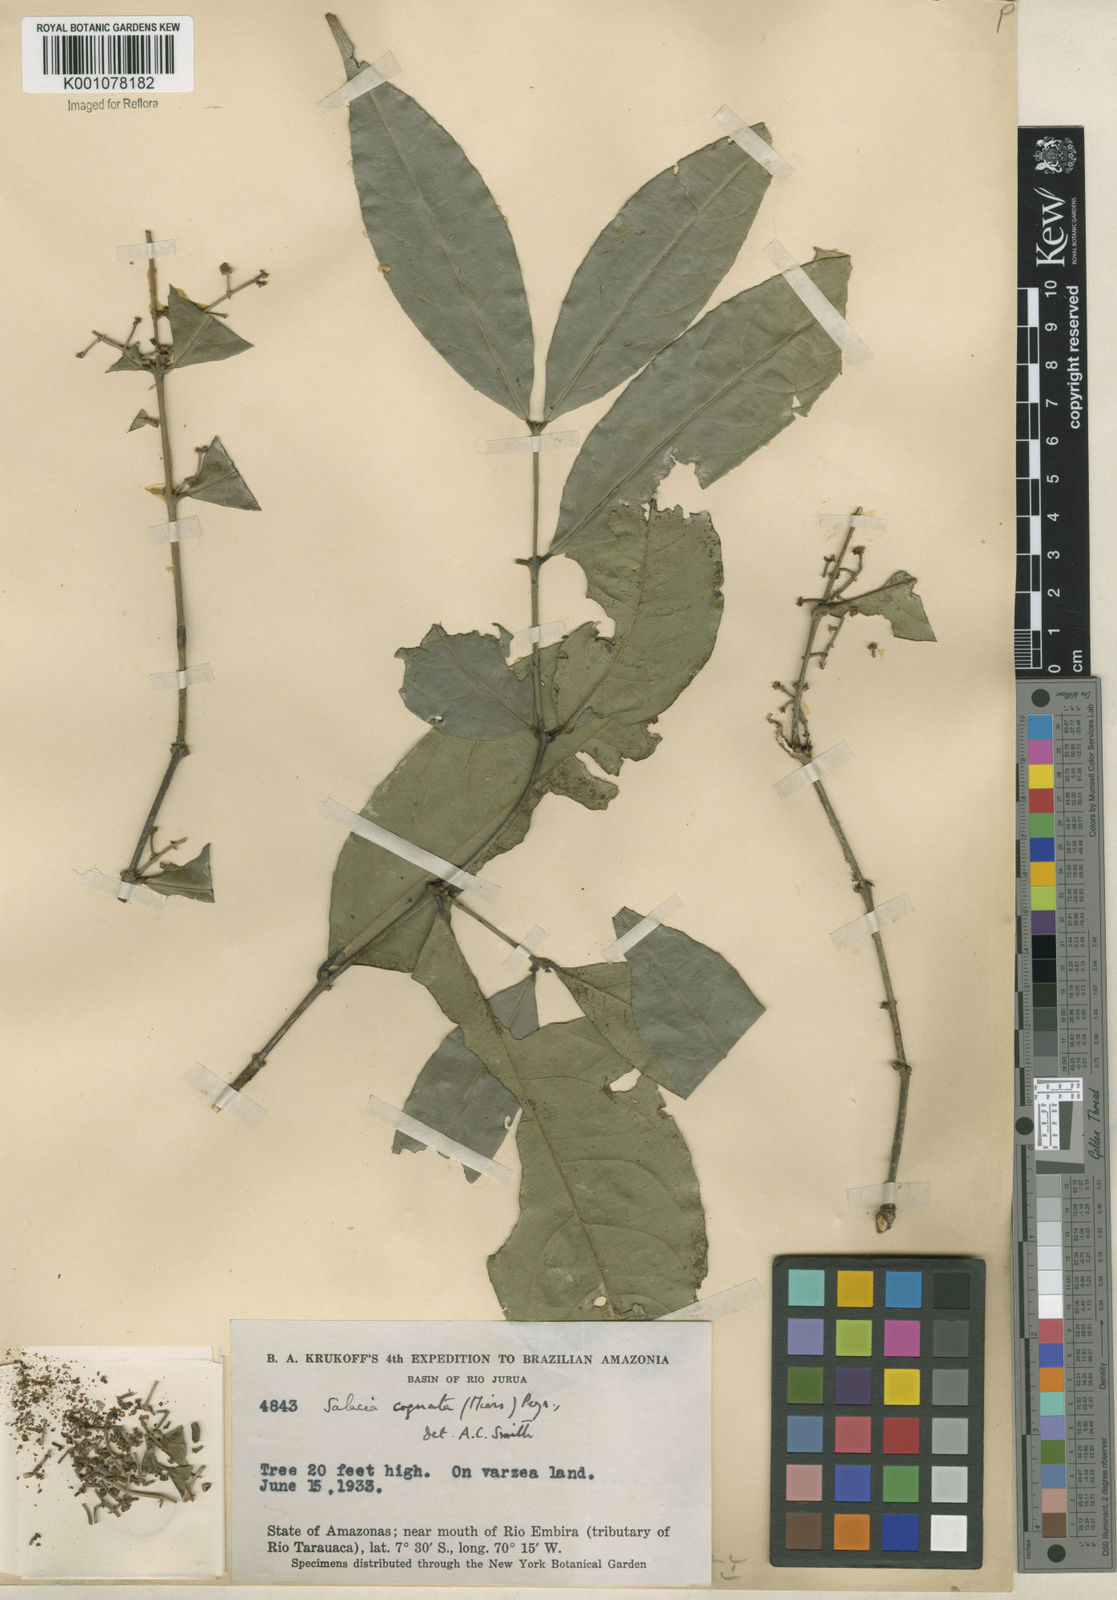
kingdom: Plantae
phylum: Tracheophyta
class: Magnoliopsida
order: Celastrales
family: Celastraceae
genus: Cheiloclinium
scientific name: Cheiloclinium cognatum
